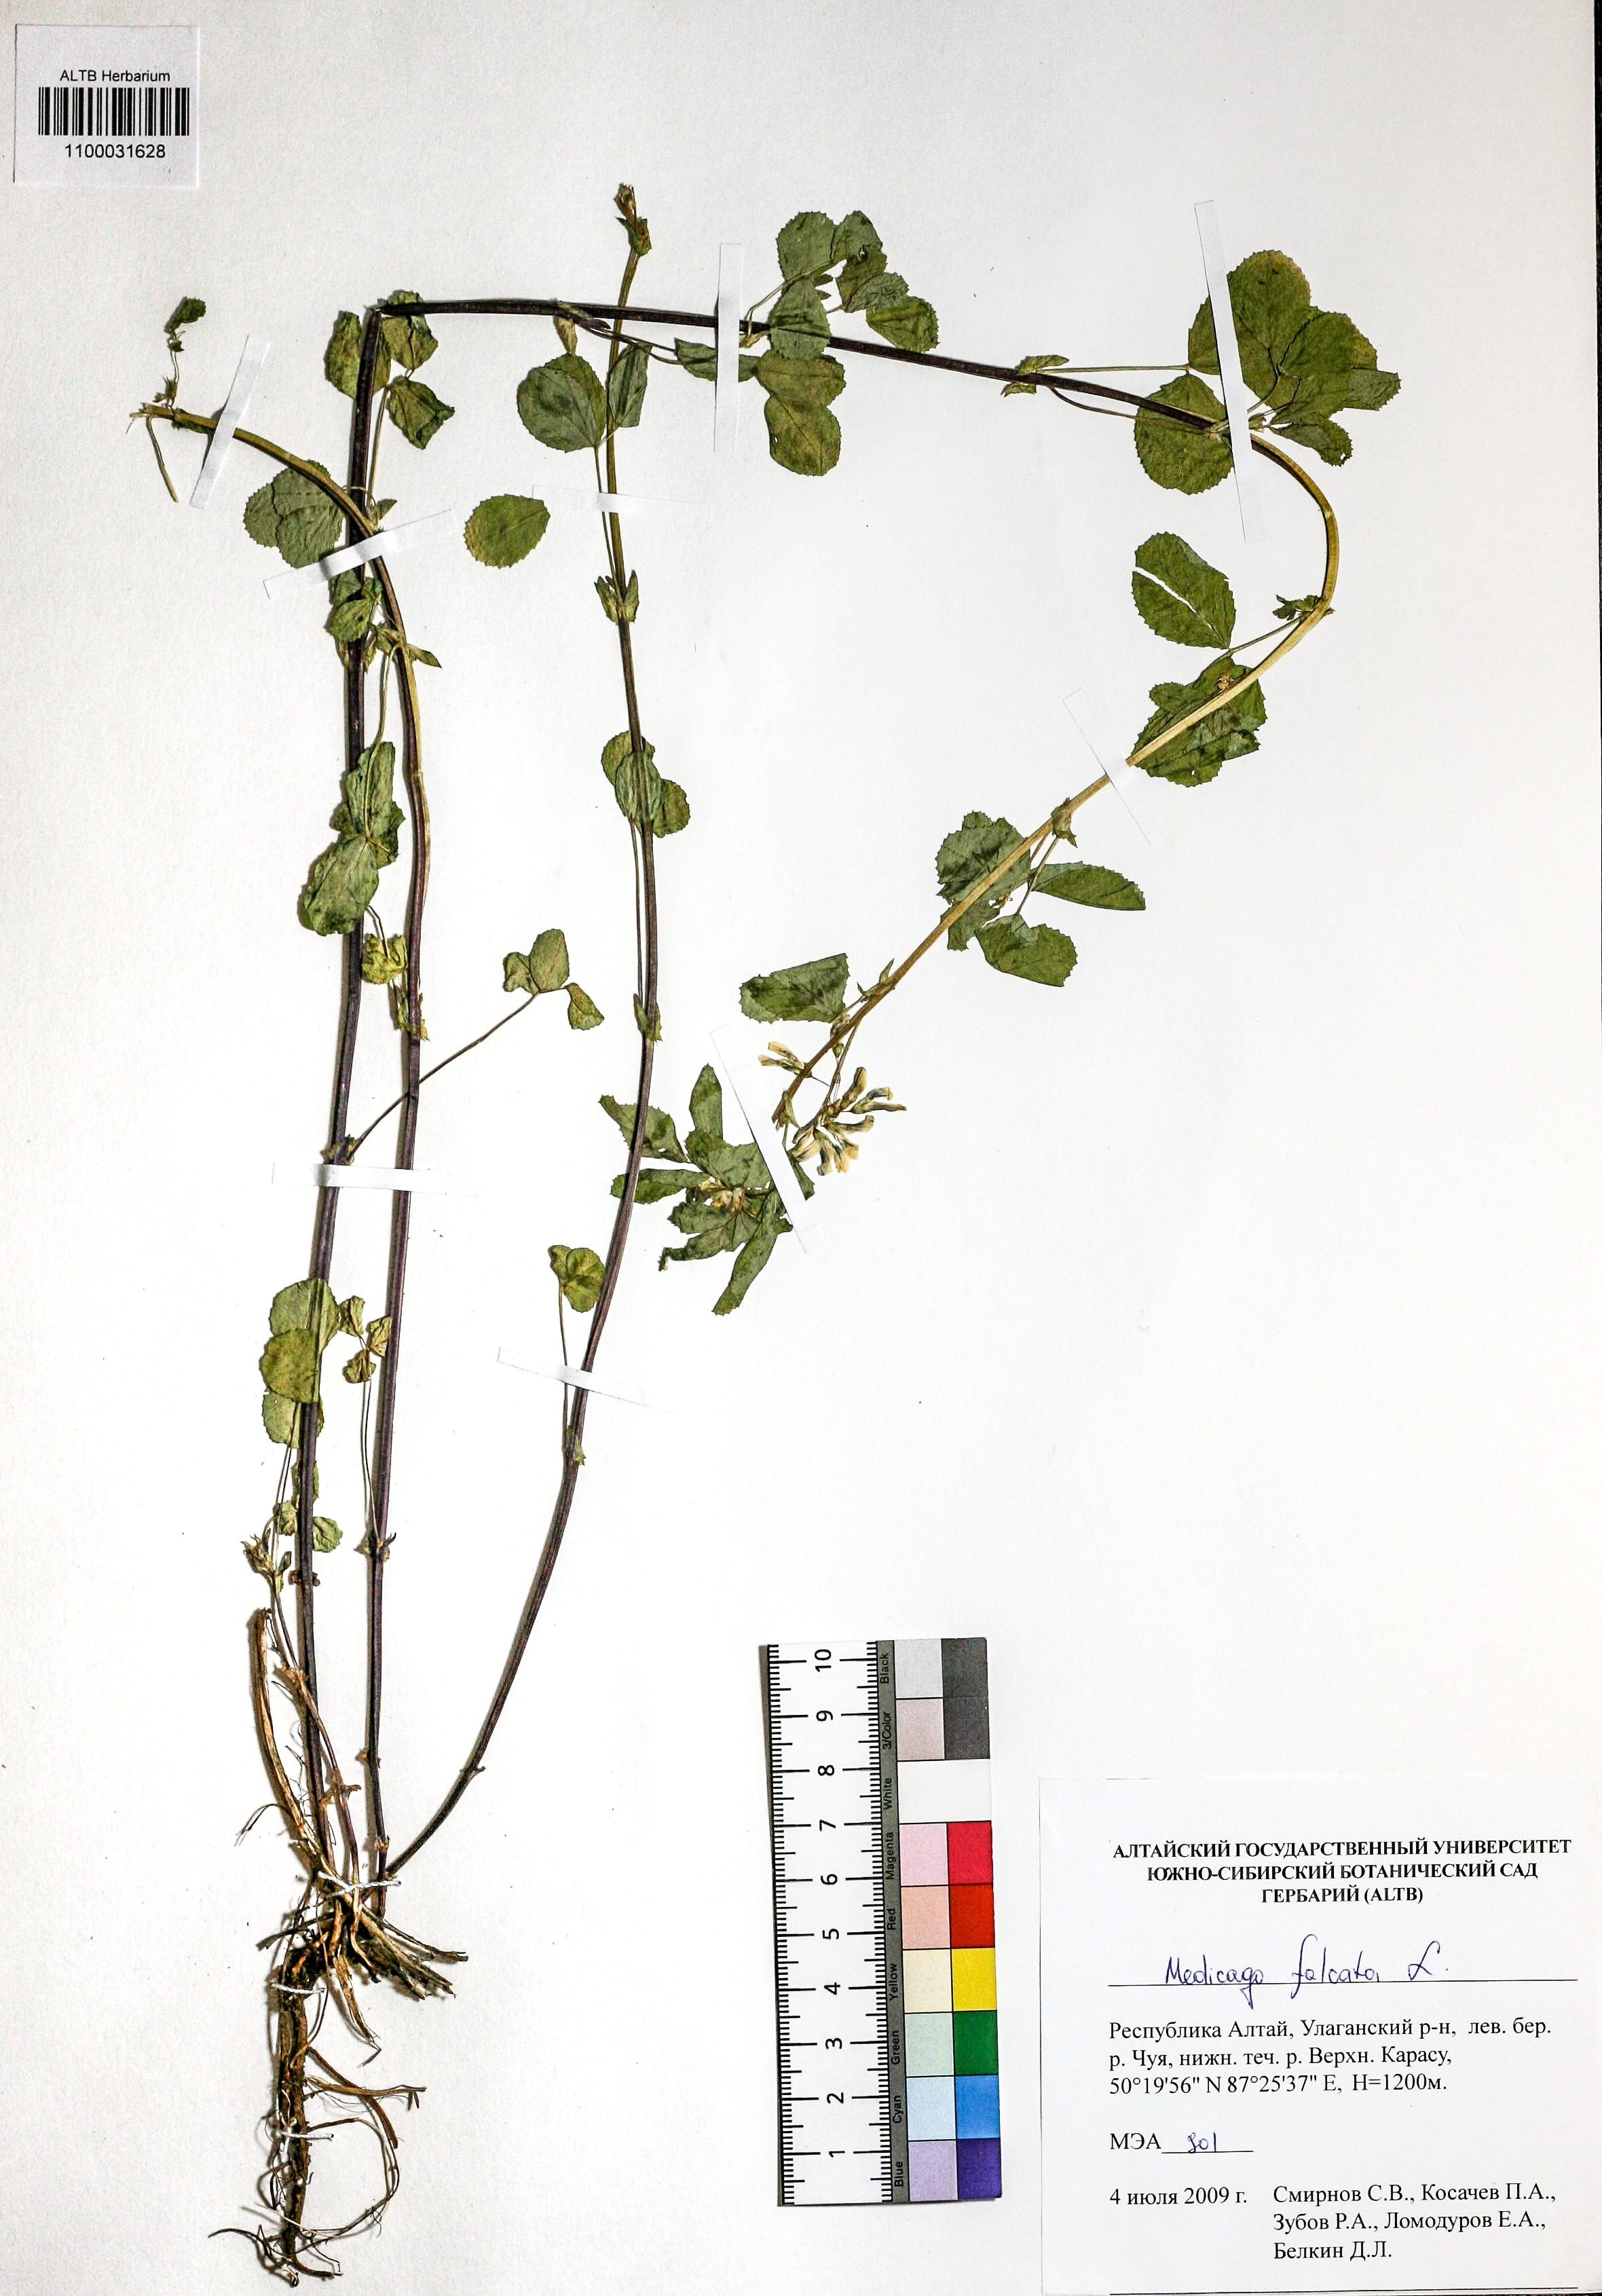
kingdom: Plantae
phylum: Tracheophyta
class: Magnoliopsida
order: Fabales
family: Fabaceae
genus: Medicago
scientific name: Medicago falcata
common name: Sickle medick
